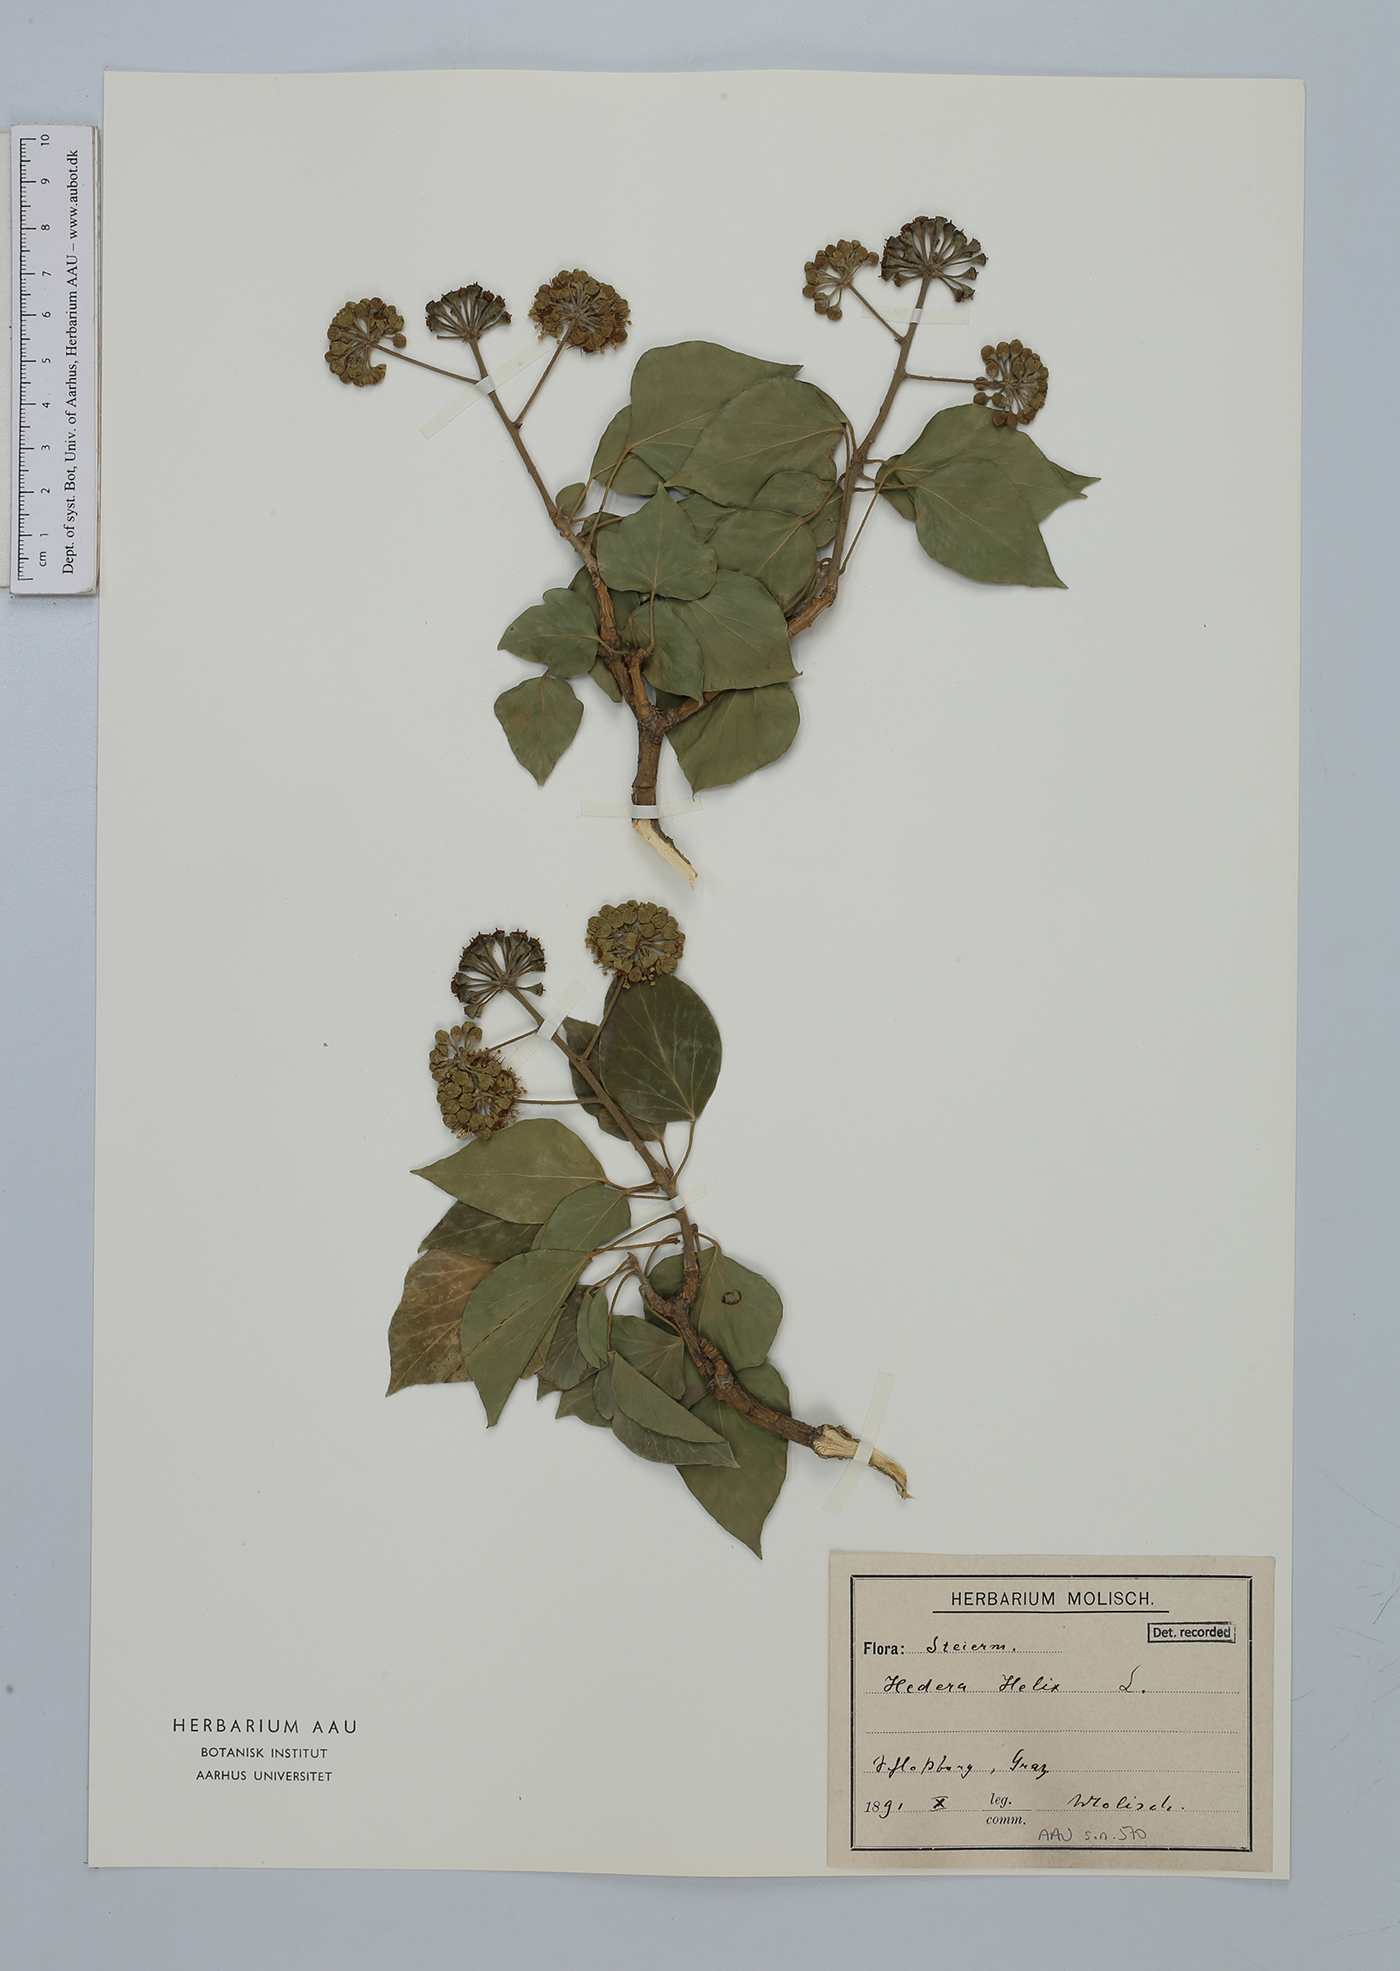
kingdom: Plantae
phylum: Tracheophyta
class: Magnoliopsida
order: Apiales
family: Araliaceae
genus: Hedera
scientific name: Hedera helix
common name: Ivy
